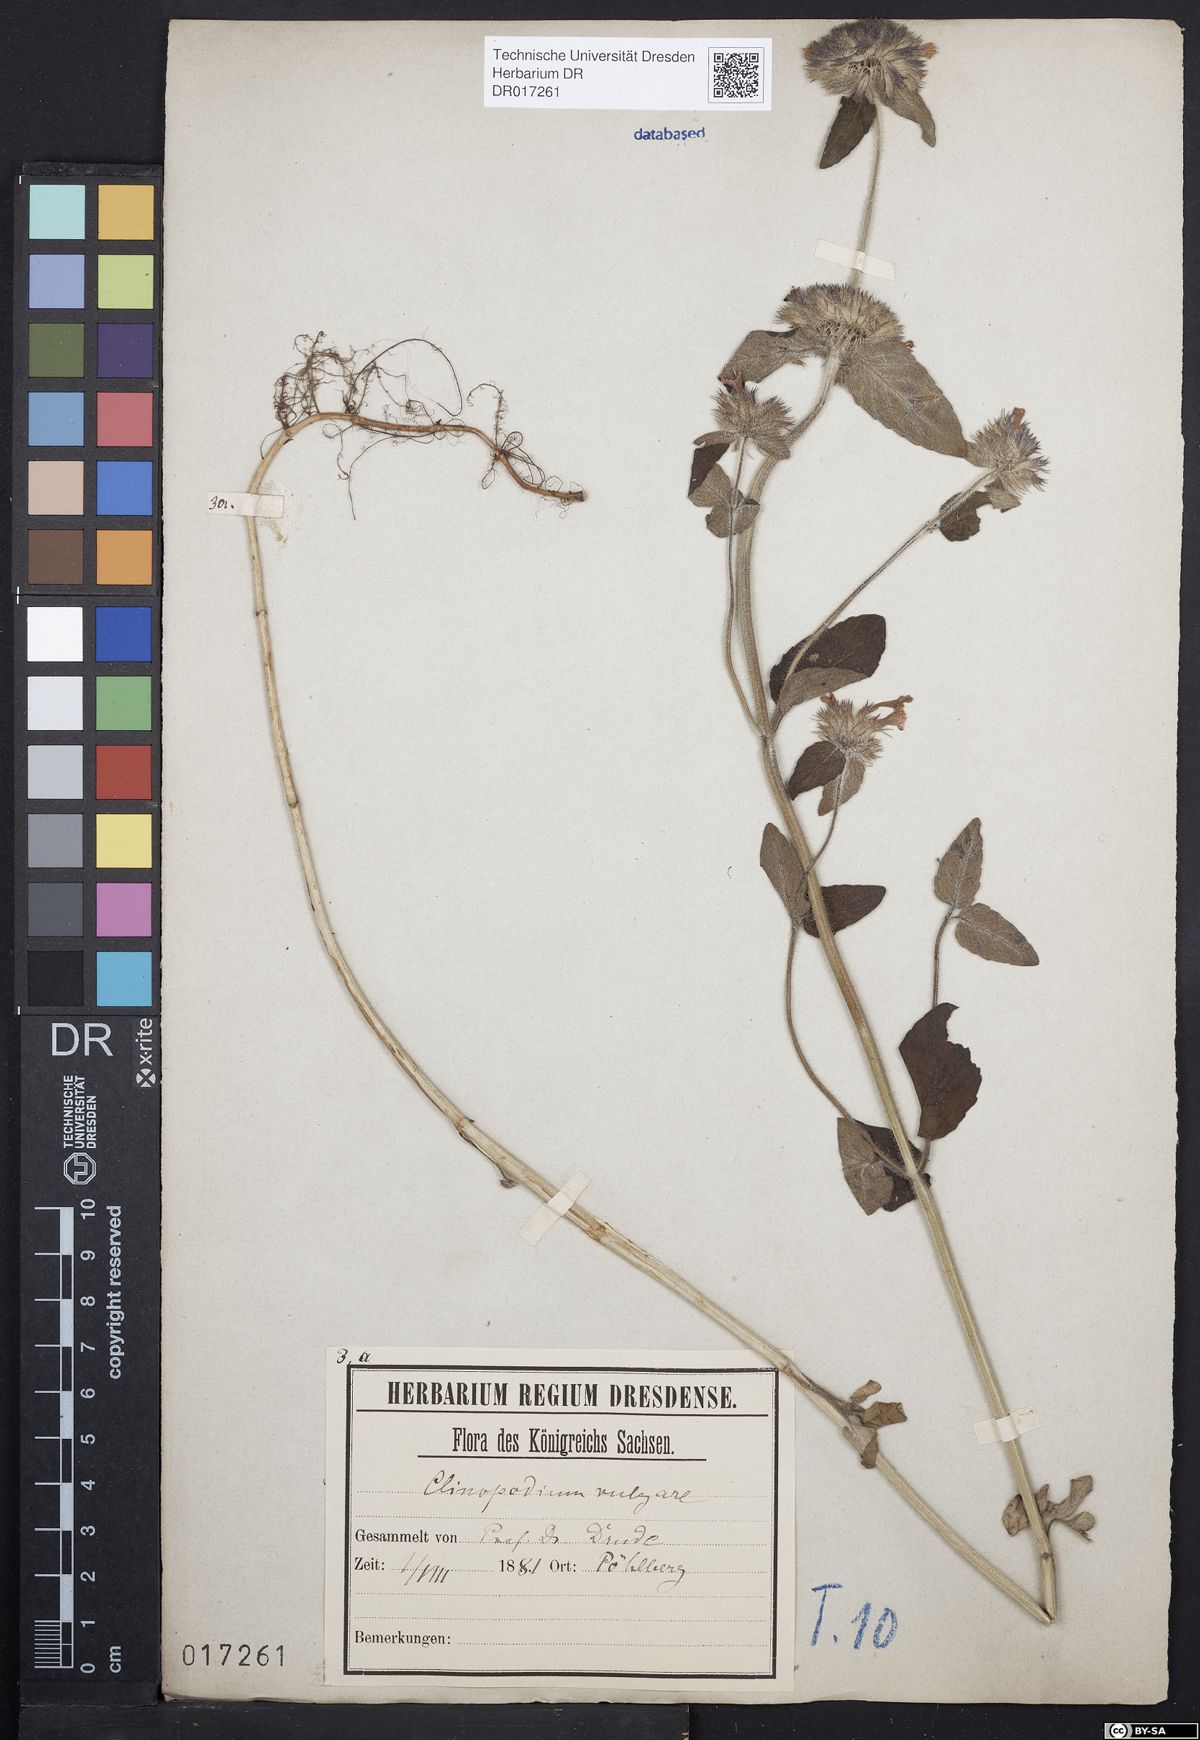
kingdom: Plantae
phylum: Tracheophyta
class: Magnoliopsida
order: Lamiales
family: Lamiaceae
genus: Clinopodium
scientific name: Clinopodium vulgare
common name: Wild basil
